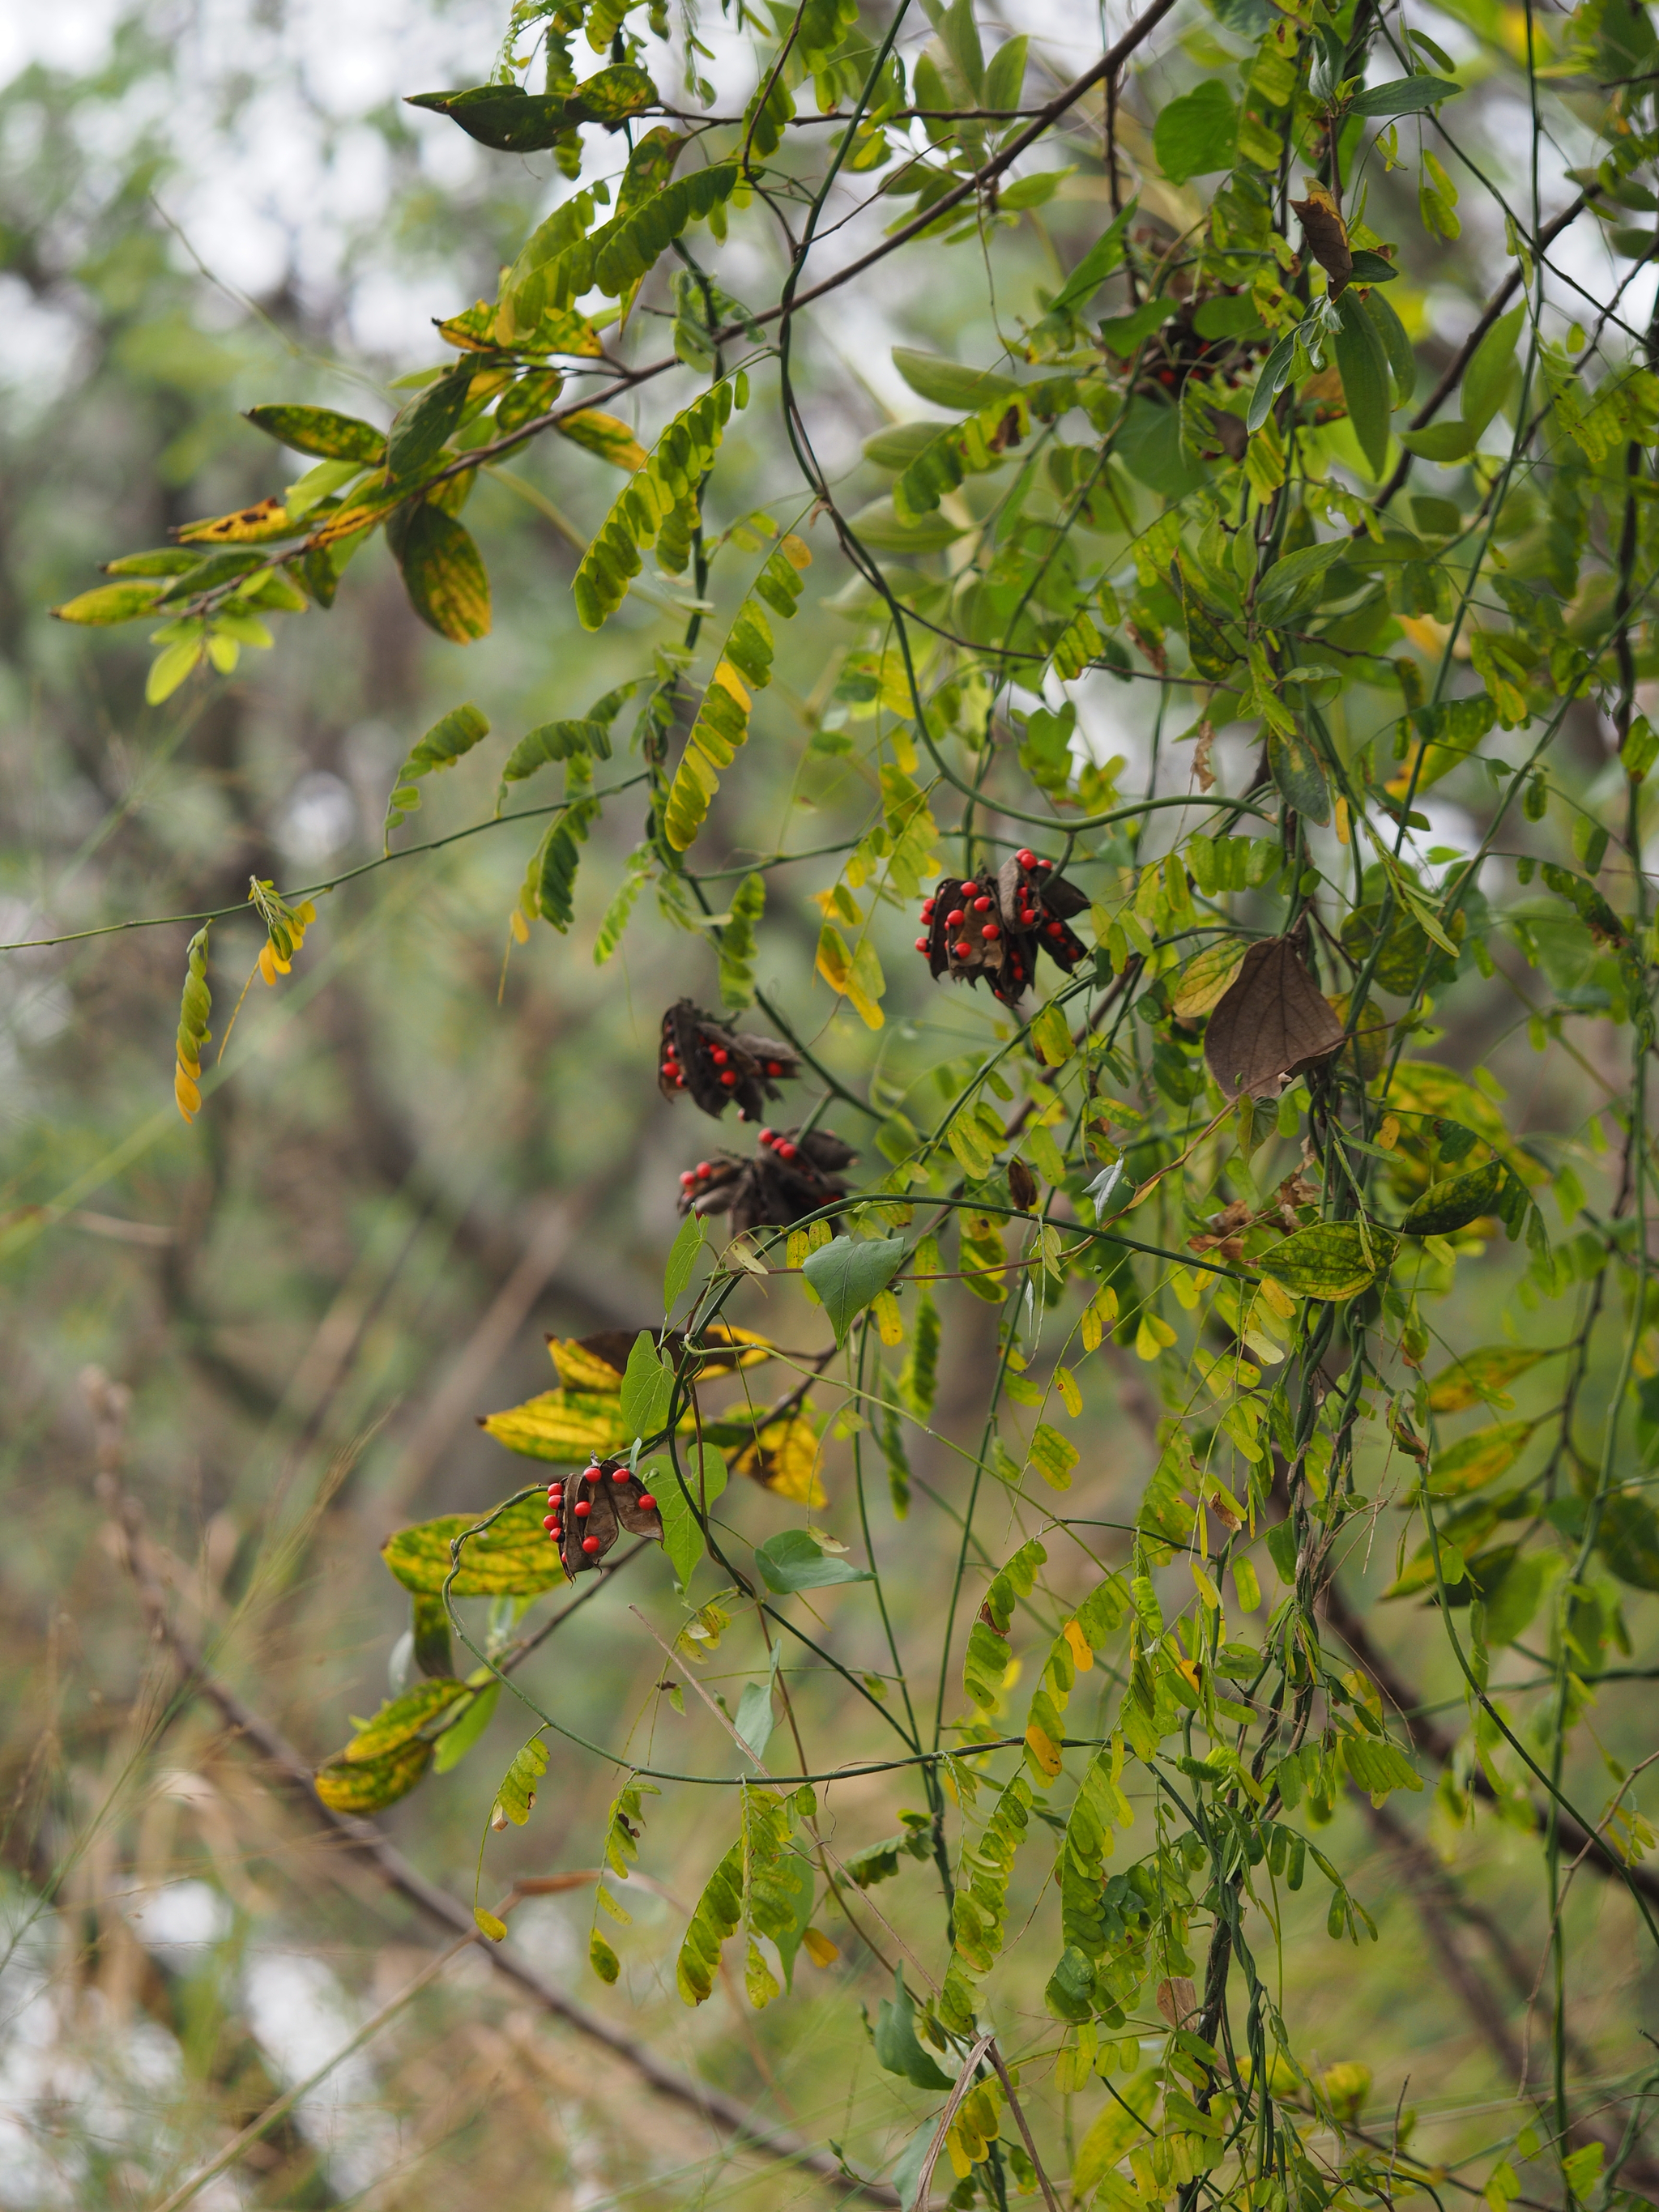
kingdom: Plantae
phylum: Tracheophyta
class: Magnoliopsida
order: Fabales
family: Fabaceae
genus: Abrus
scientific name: Abrus precatorius
